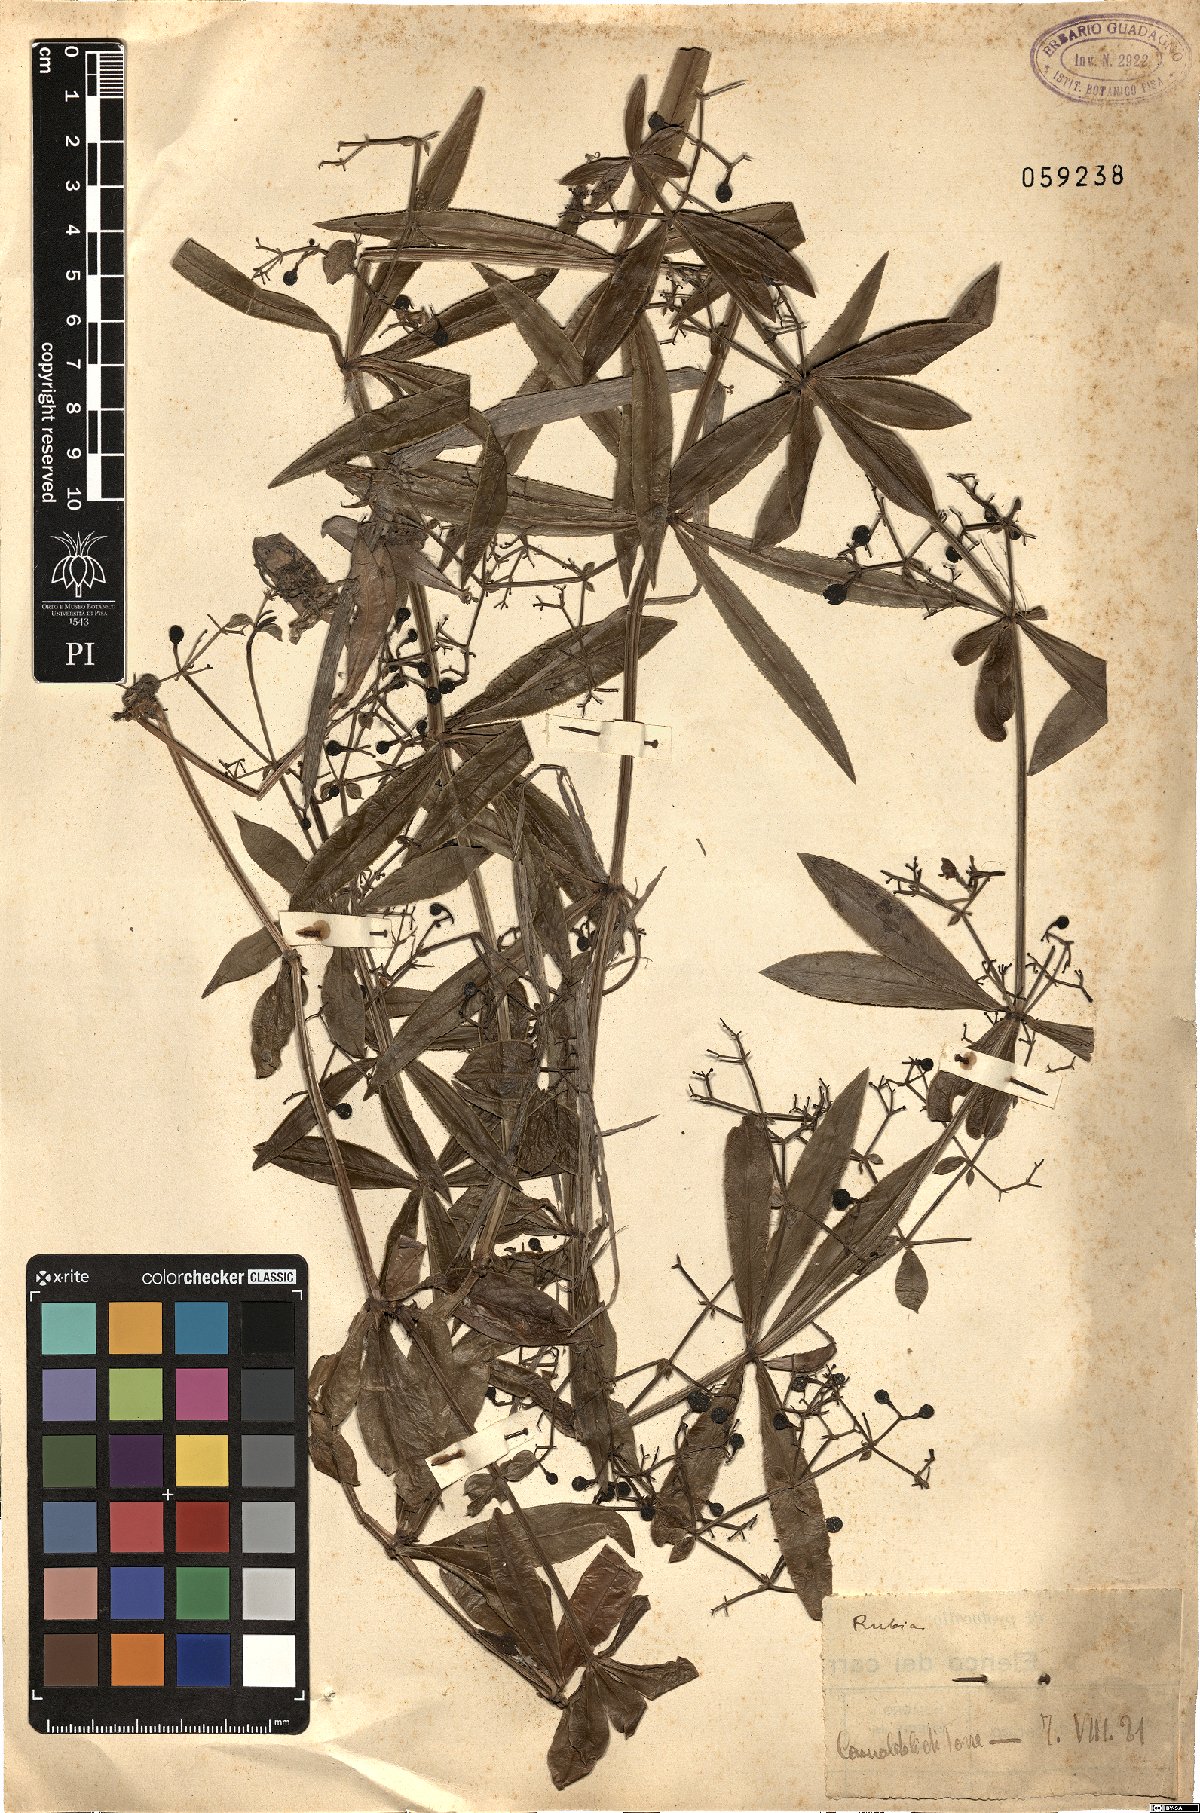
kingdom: Plantae
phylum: Tracheophyta
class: Magnoliopsida
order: Gentianales
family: Rubiaceae
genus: Rubia
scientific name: Rubia
